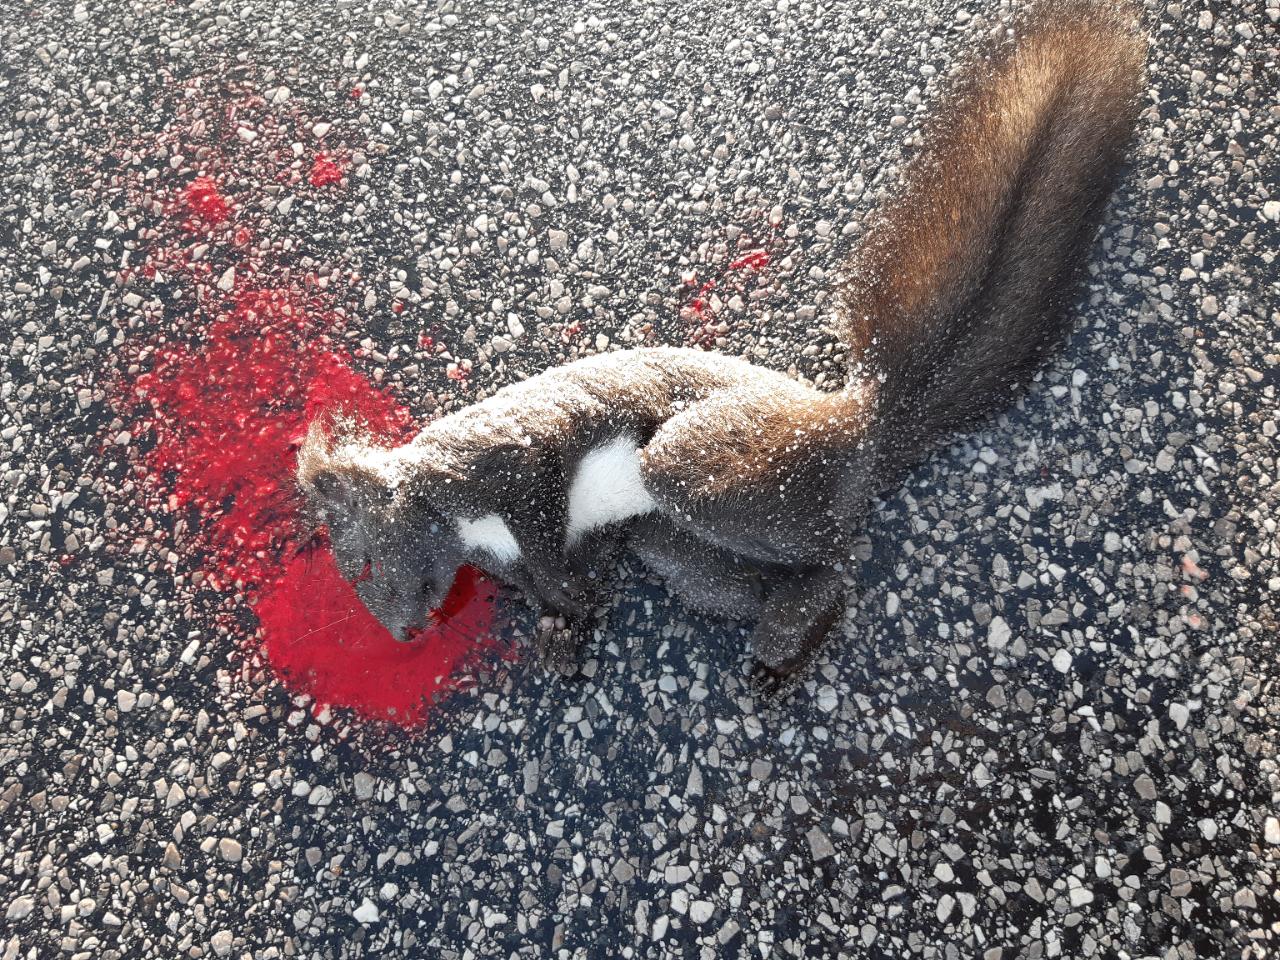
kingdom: Animalia
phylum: Chordata
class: Mammalia
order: Rodentia
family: Sciuridae
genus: Sciurus
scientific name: Sciurus vulgaris
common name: Eurasian red squirrel
